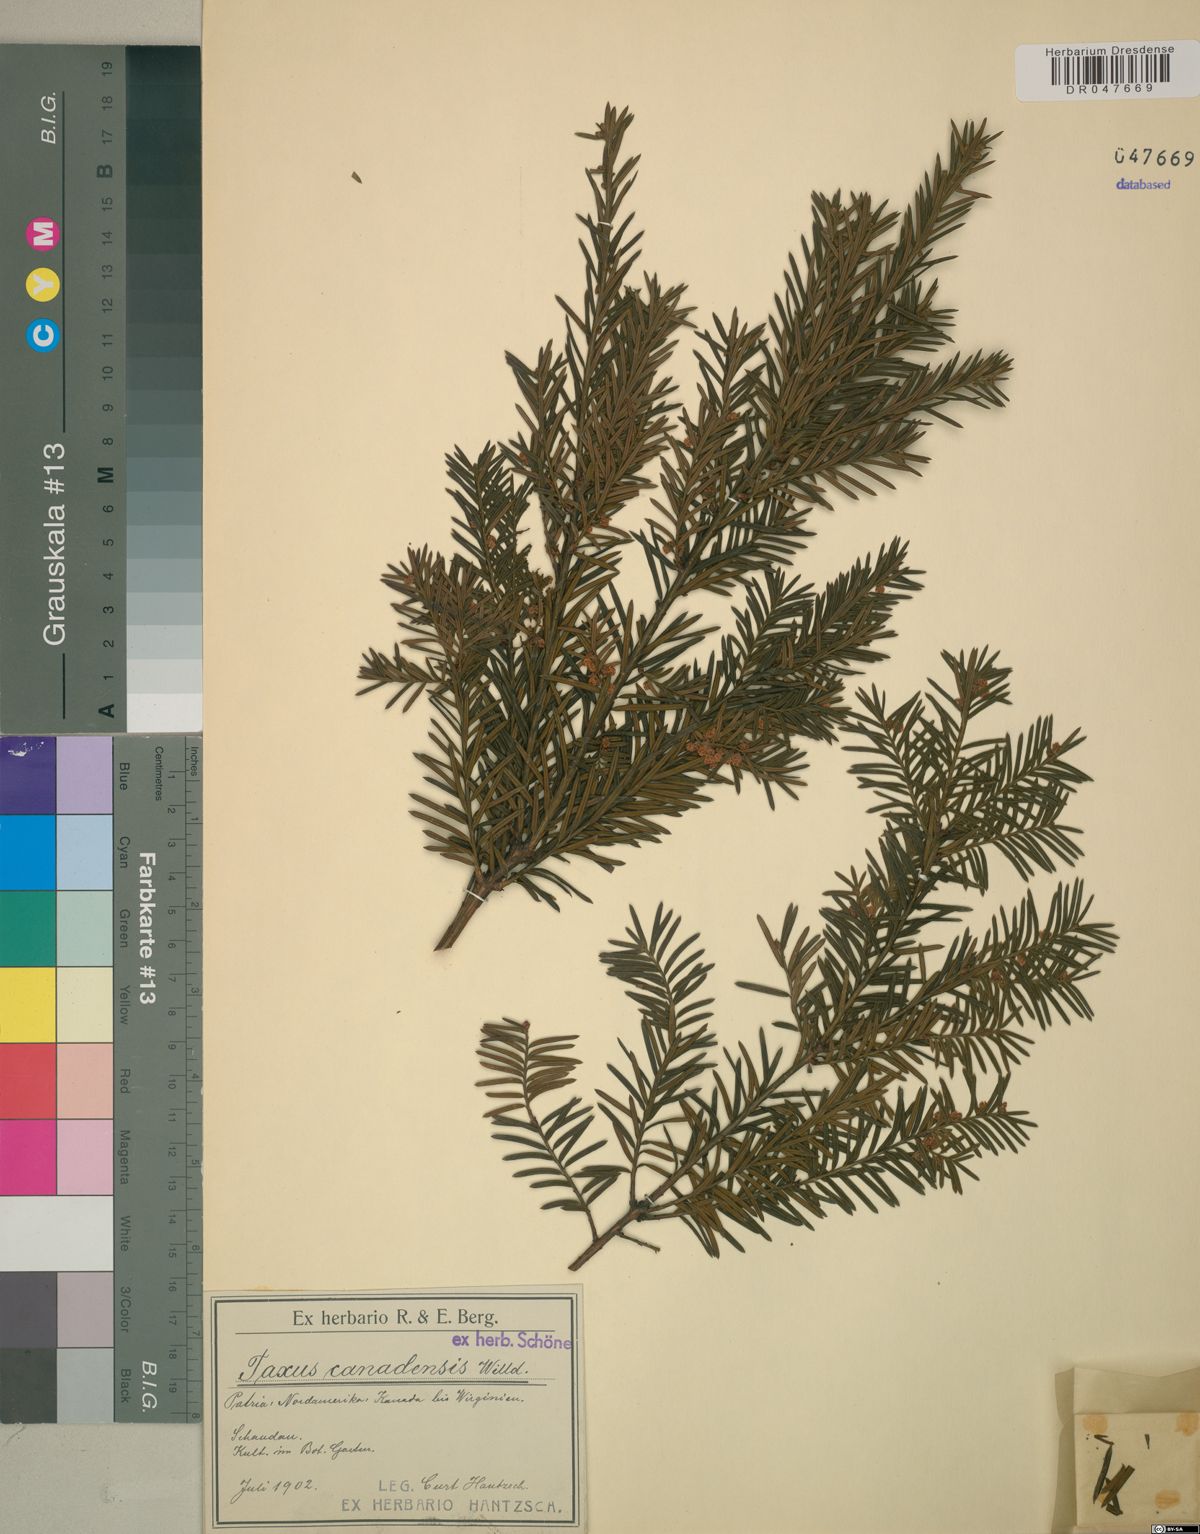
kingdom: Plantae
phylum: Tracheophyta
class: Pinopsida
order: Pinales
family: Taxaceae
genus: Taxus
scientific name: Taxus canadensis
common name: American yew
